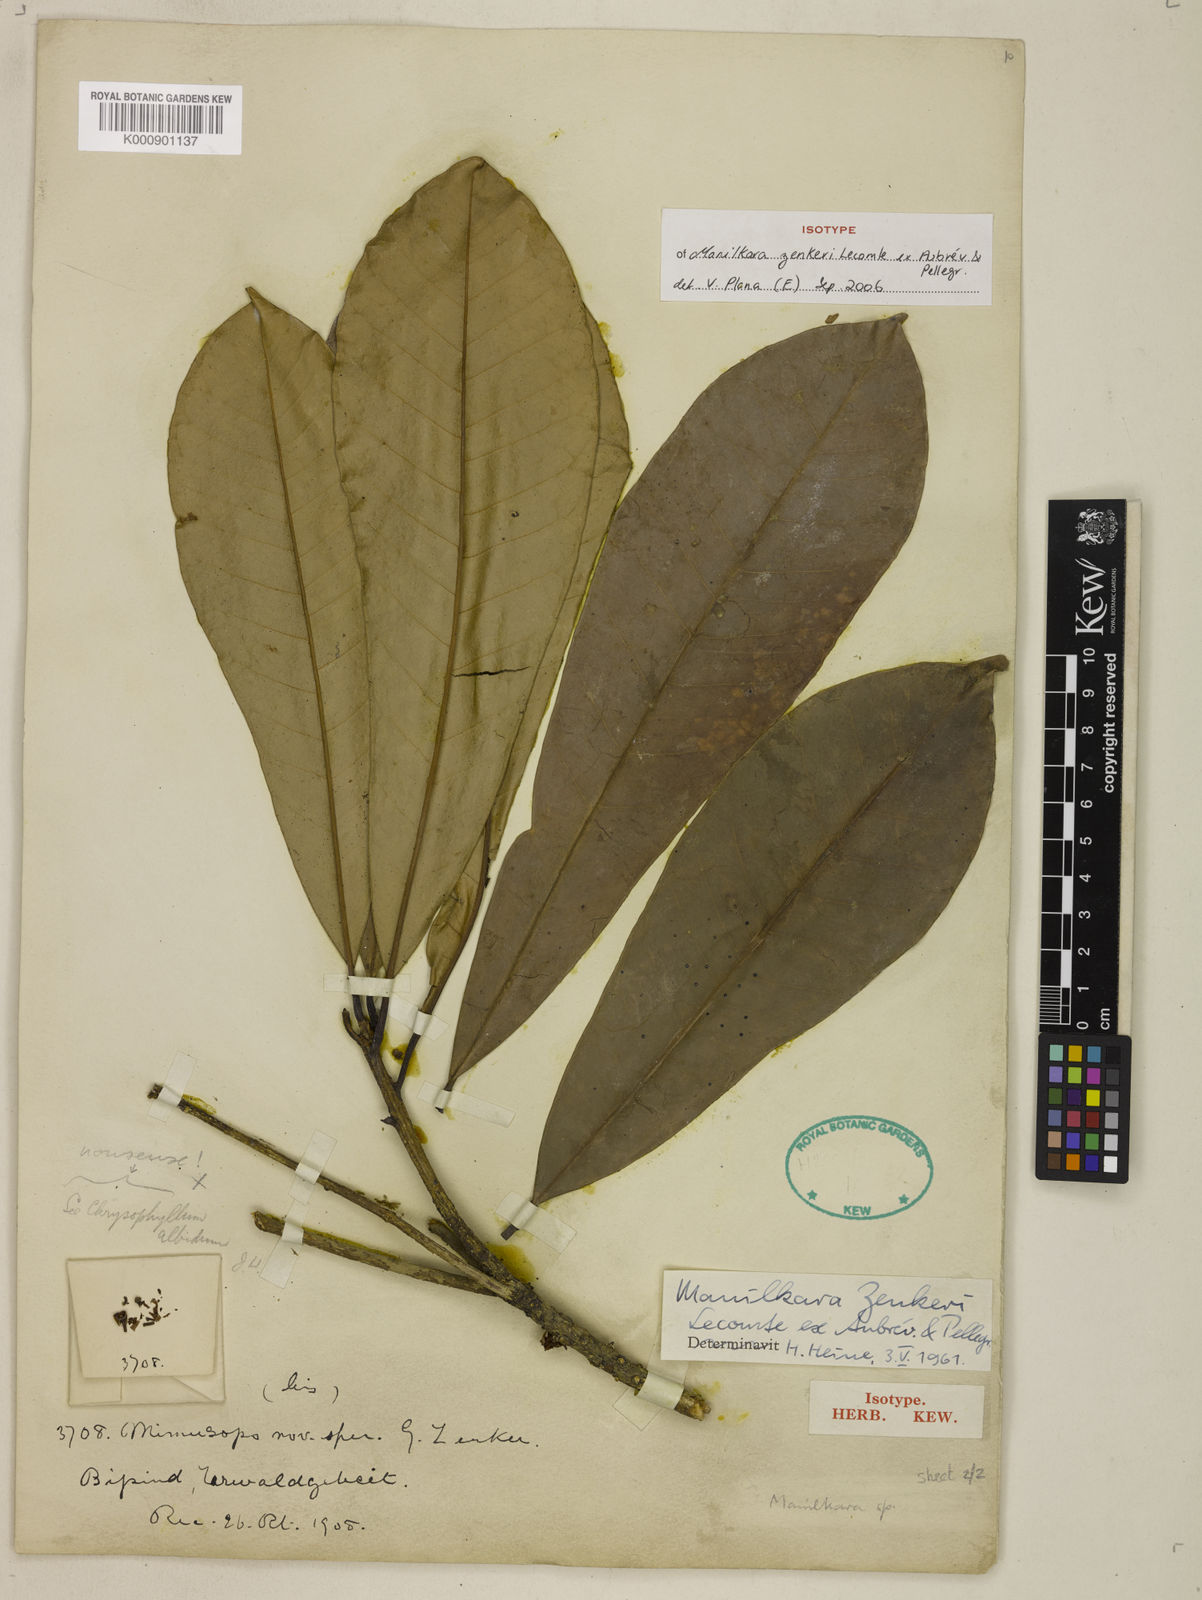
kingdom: Plantae
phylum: Tracheophyta
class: Magnoliopsida
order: Ericales
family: Sapotaceae
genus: Manilkara
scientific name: Manilkara
